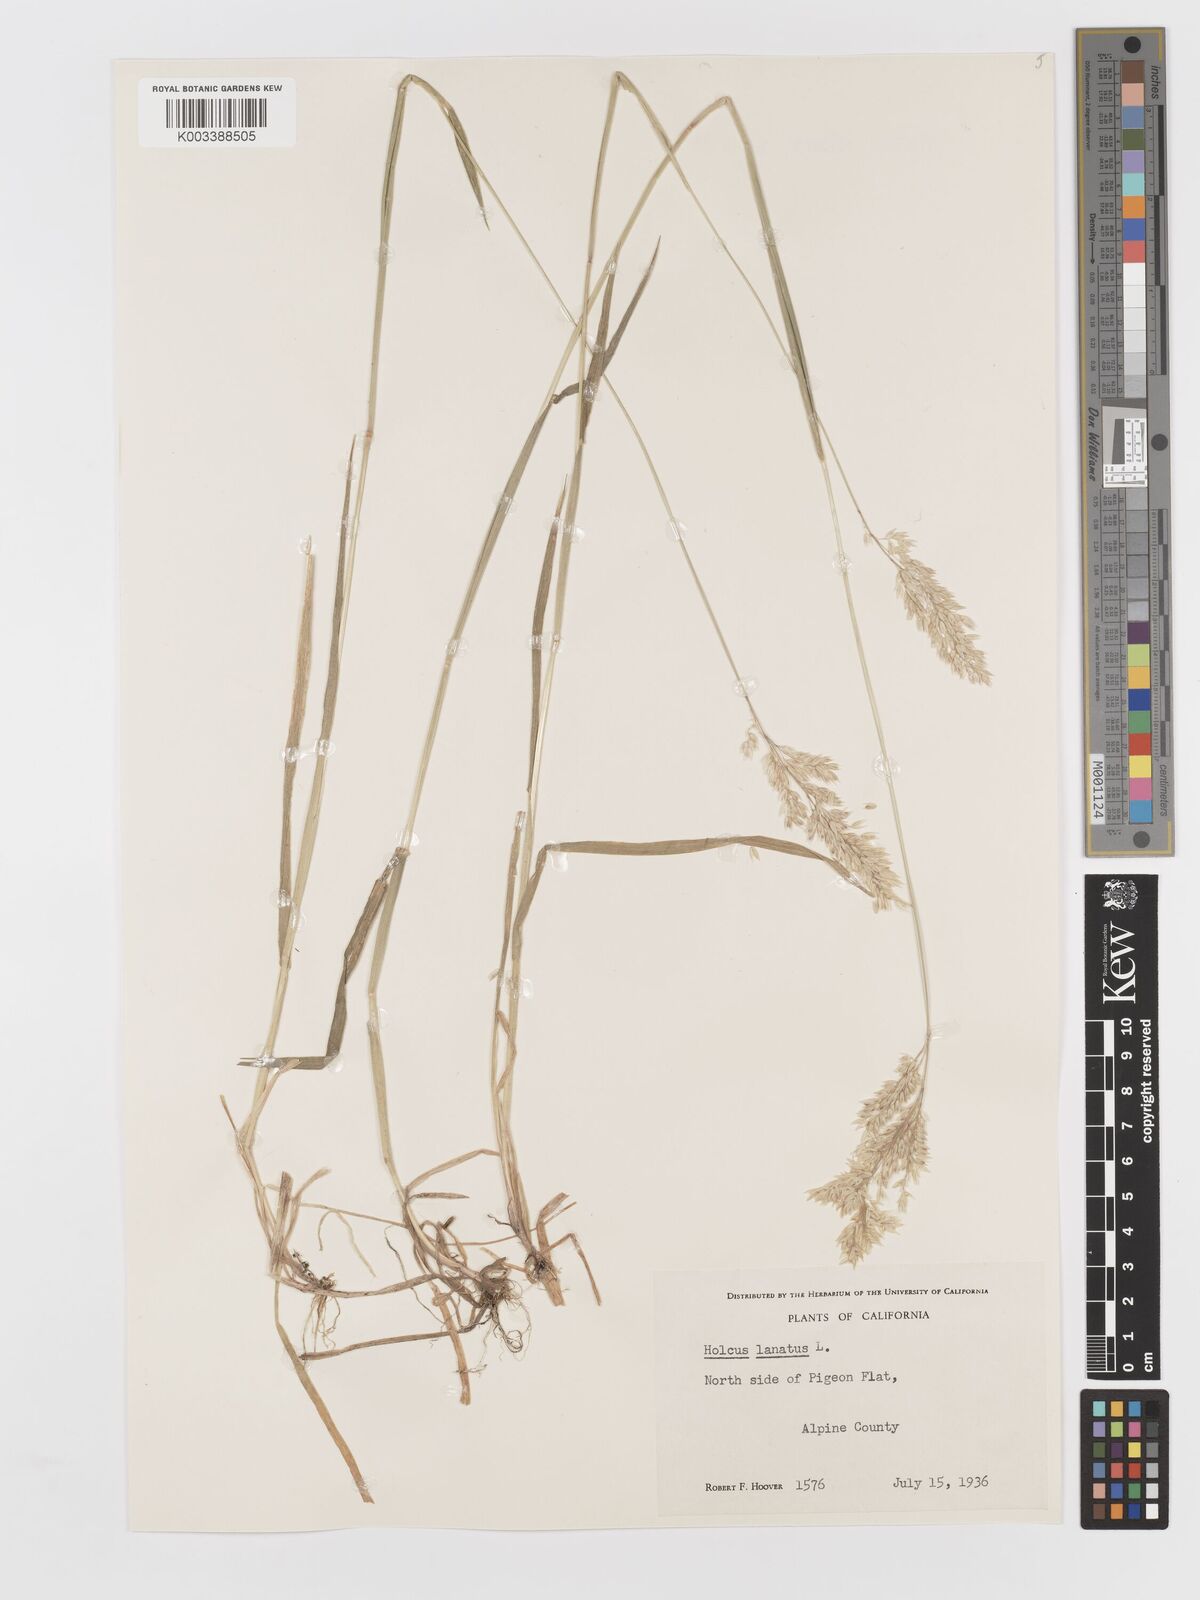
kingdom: Plantae
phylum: Tracheophyta
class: Liliopsida
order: Poales
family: Poaceae
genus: Holcus
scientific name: Holcus lanatus
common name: Yorkshire-fog
